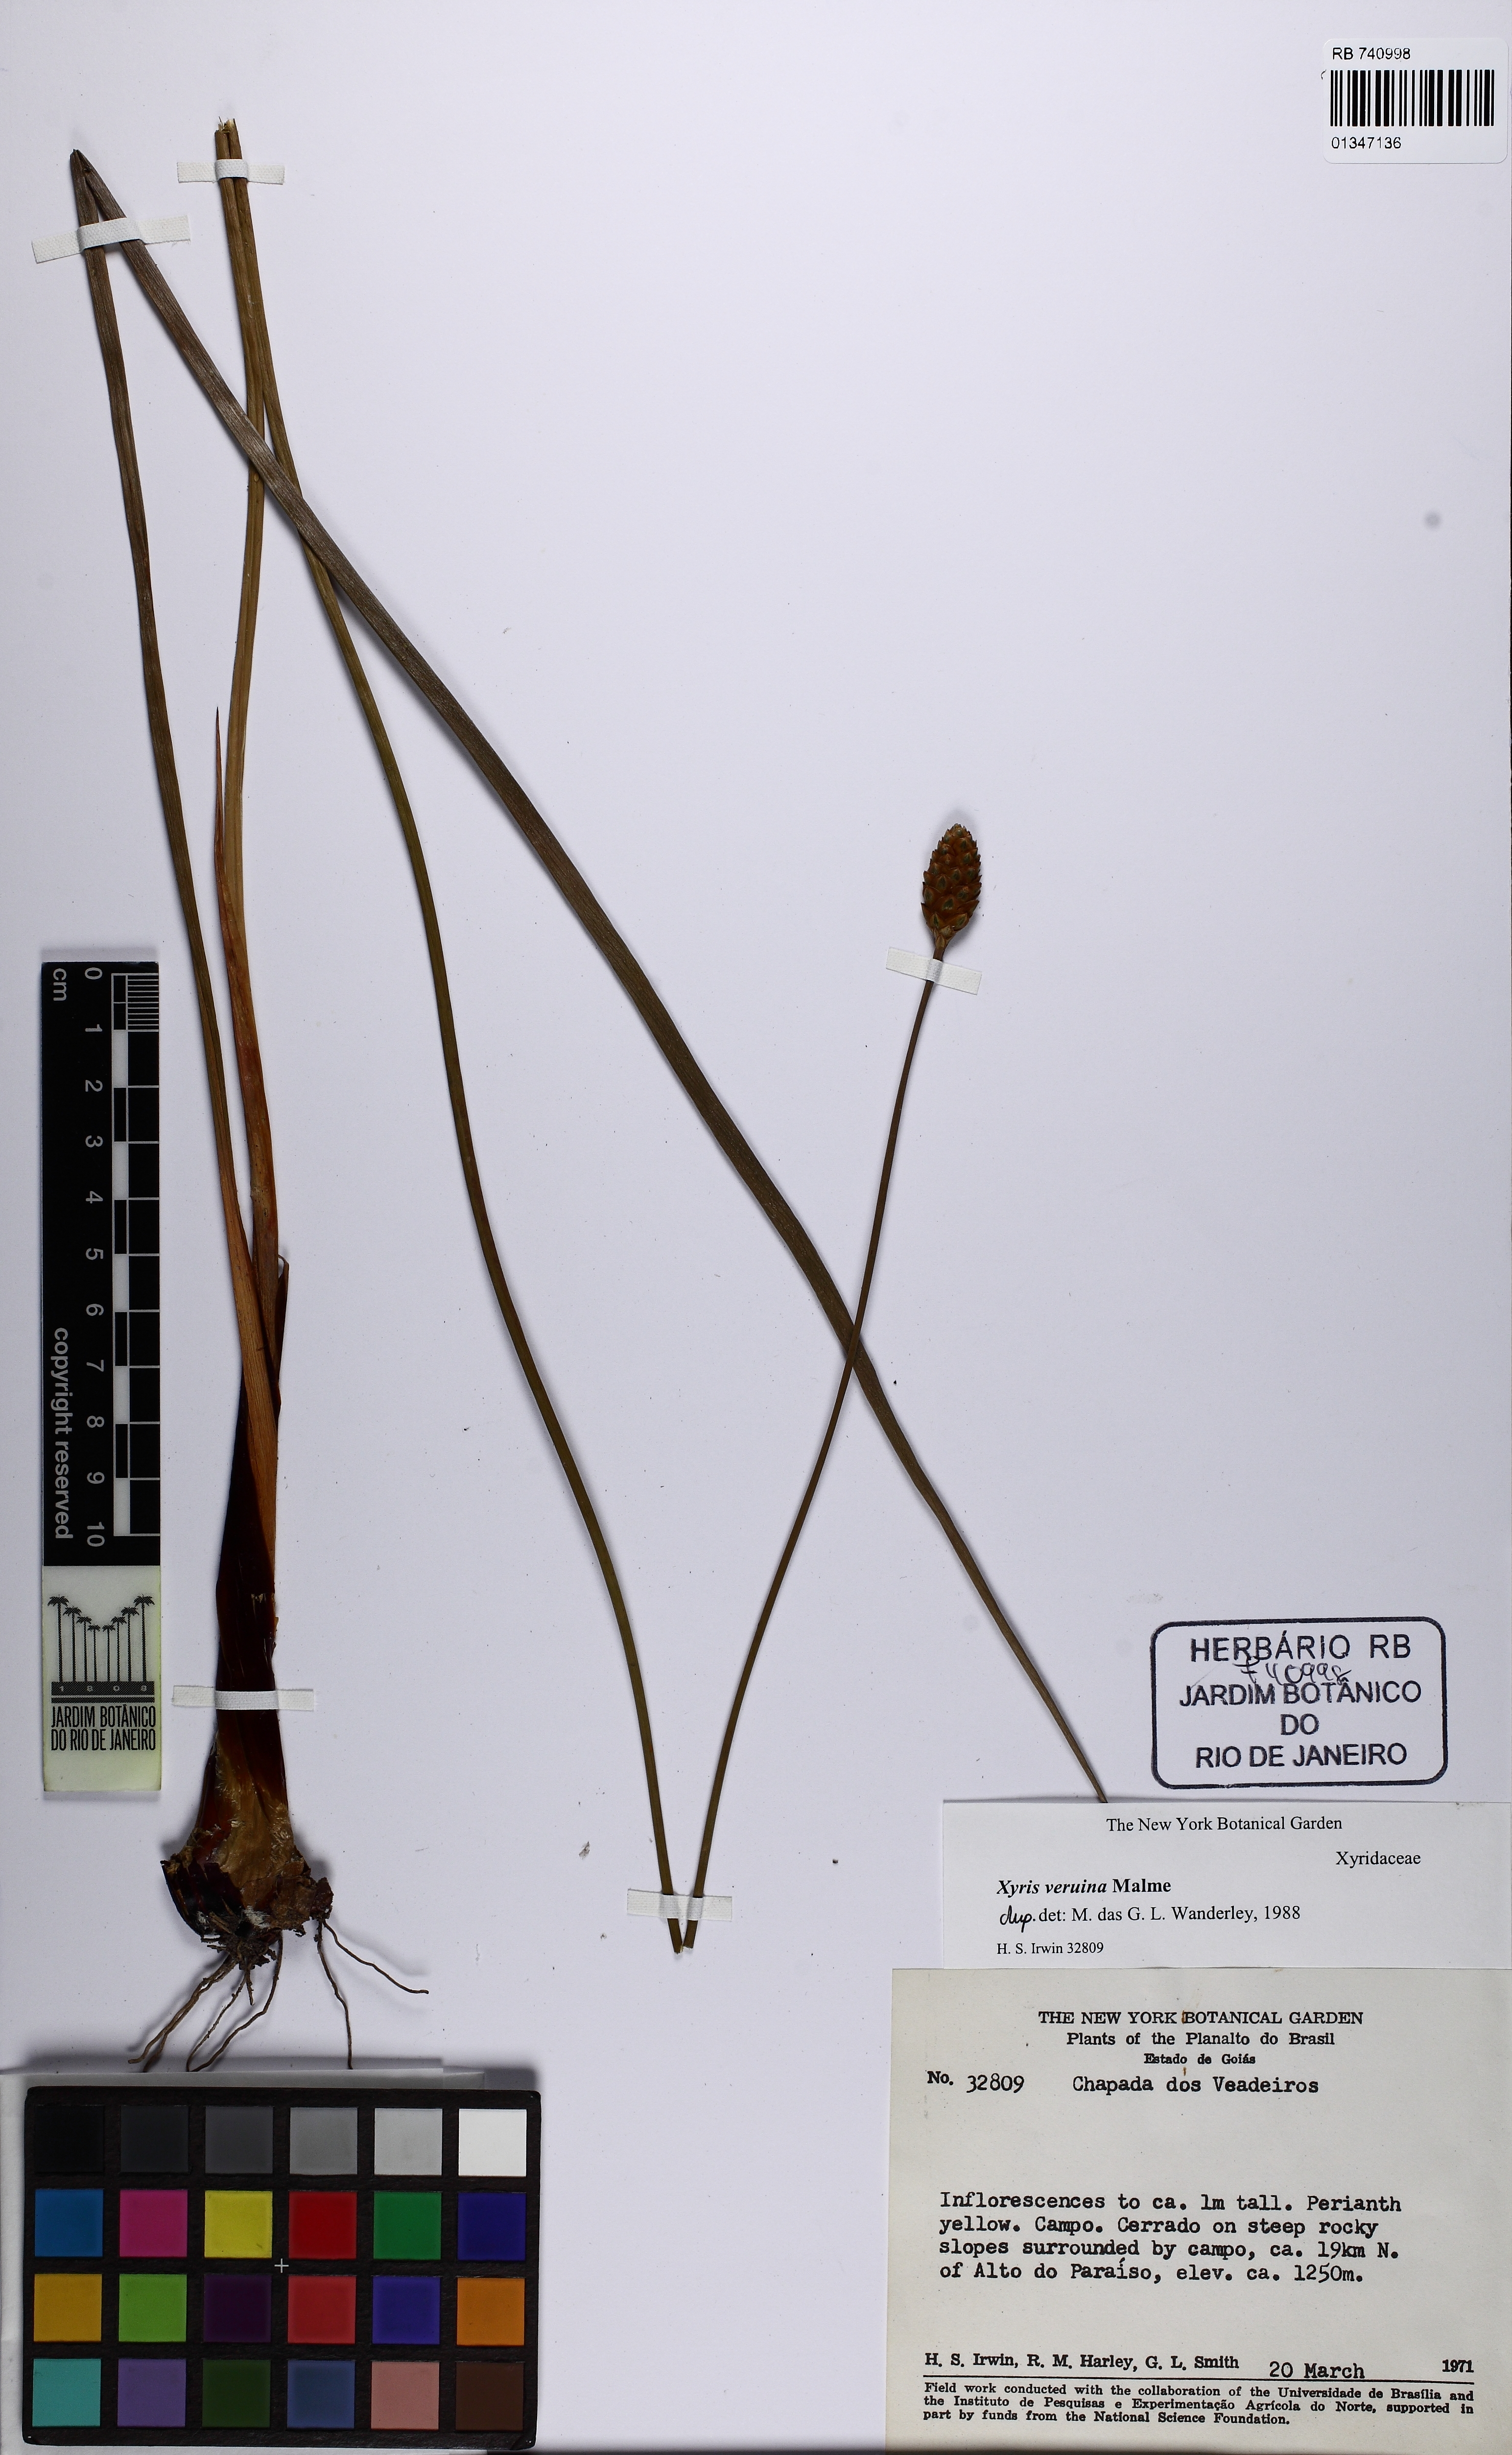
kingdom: Plantae
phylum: Tracheophyta
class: Liliopsida
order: Poales
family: Xyridaceae
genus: Xyris
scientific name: Xyris veruina
